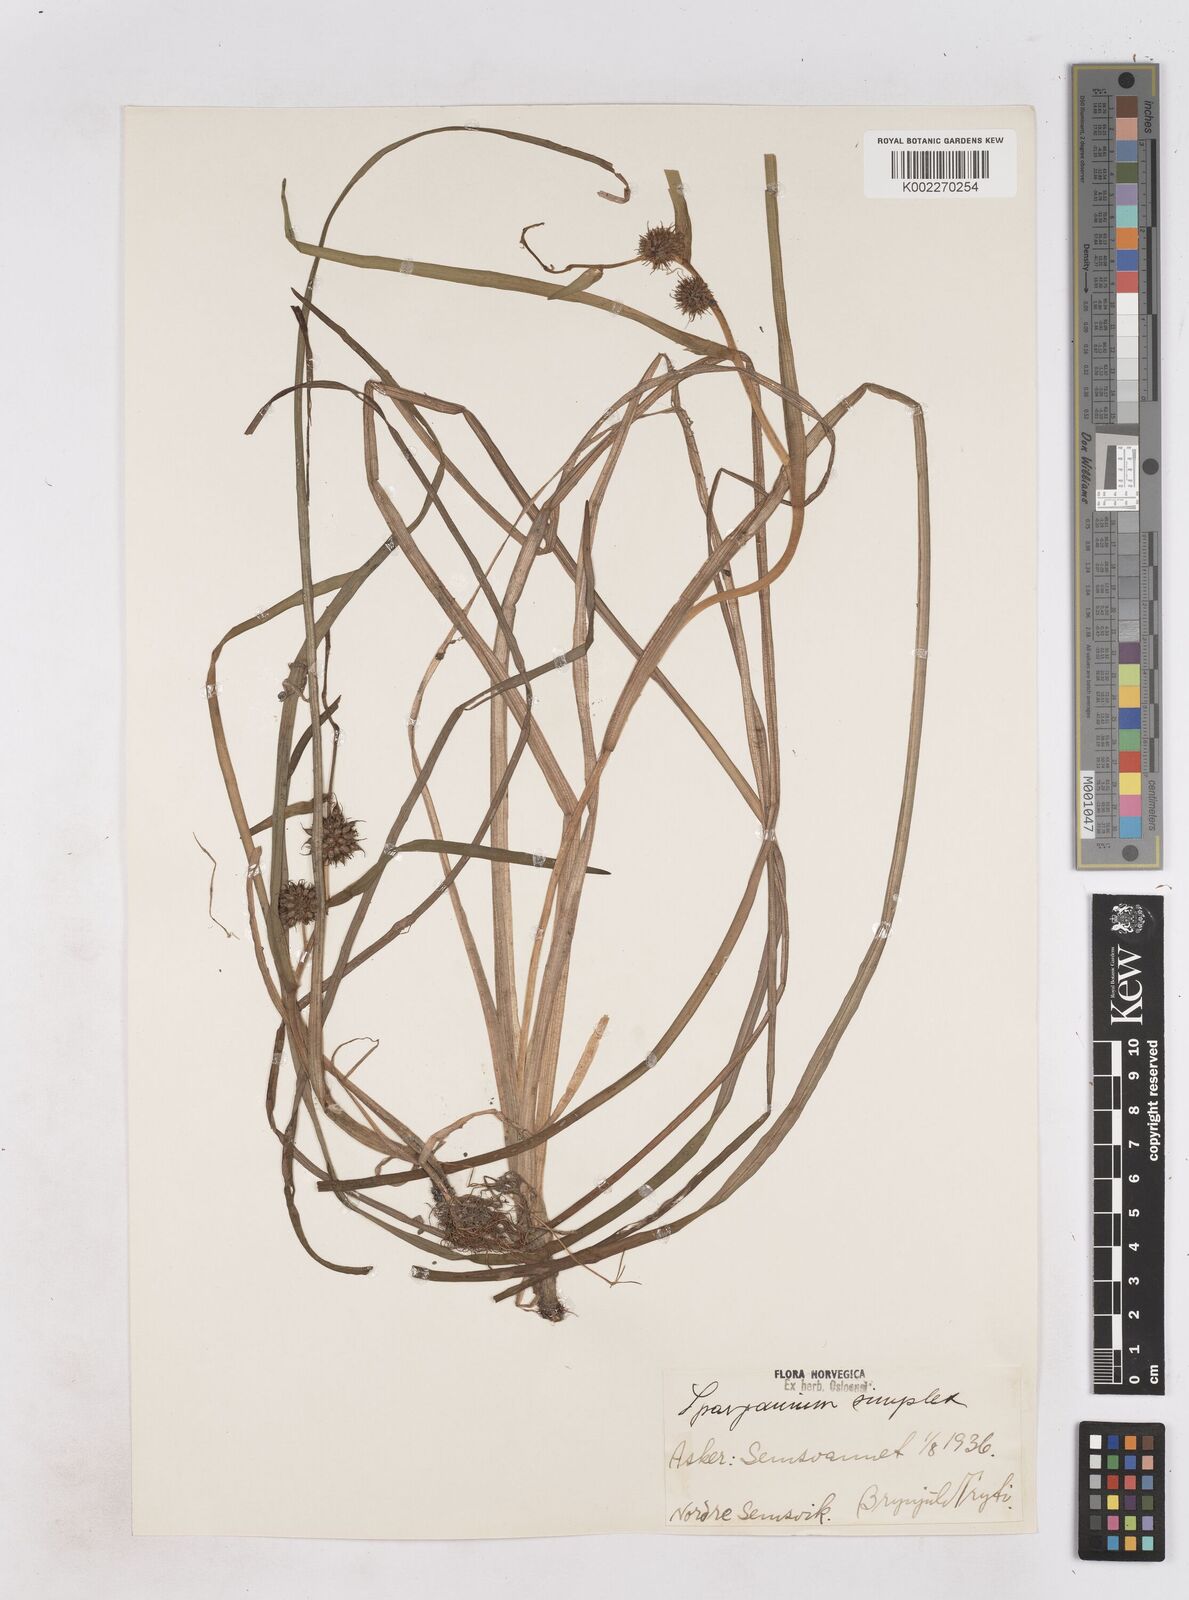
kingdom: Plantae
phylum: Tracheophyta
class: Liliopsida
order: Poales
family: Typhaceae
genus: Sparganium
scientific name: Sparganium emersum
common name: Unbranched bur-reed
